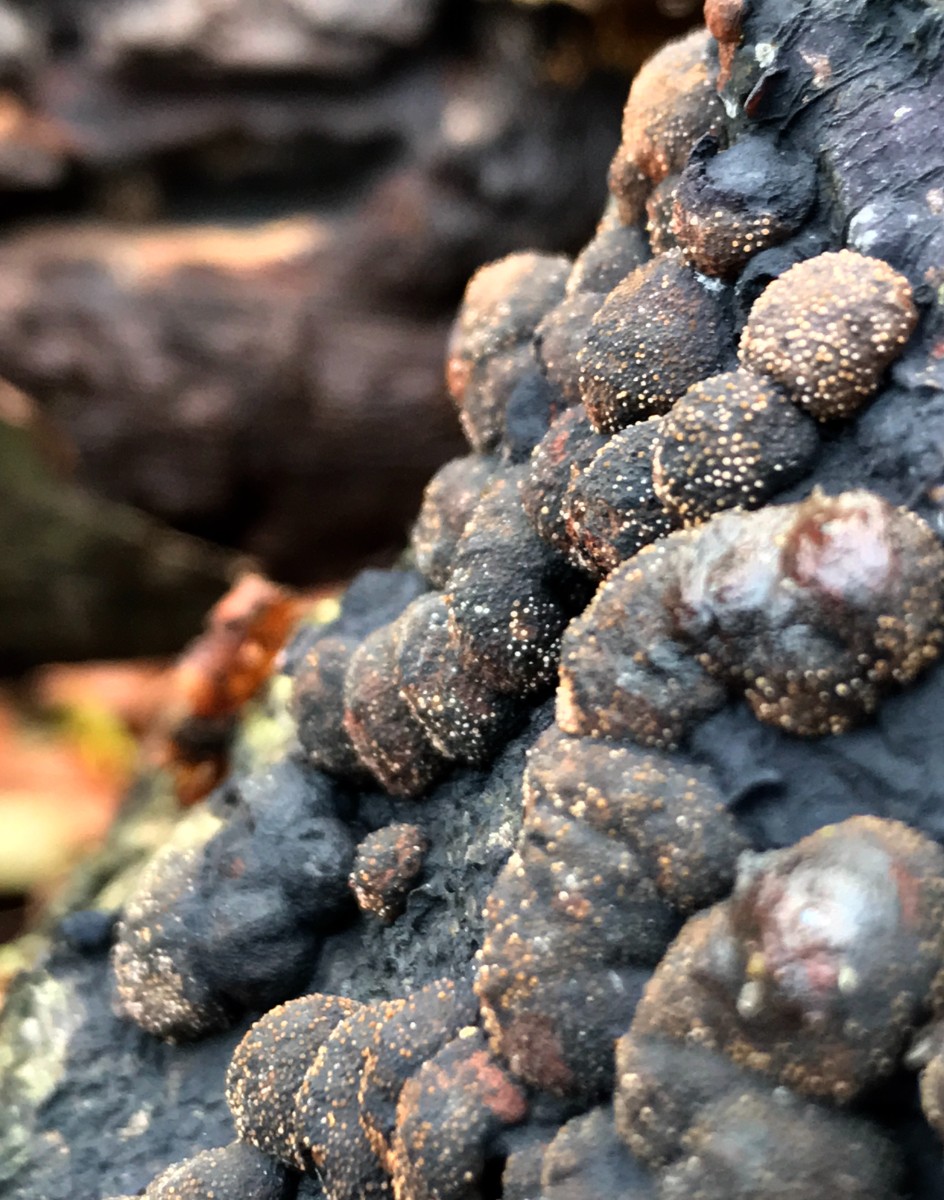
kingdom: Fungi
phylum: Ascomycota
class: Sordariomycetes
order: Xylariales
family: Hypoxylaceae
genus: Hypoxylon
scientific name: Hypoxylon fragiforme
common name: kuljordbær
